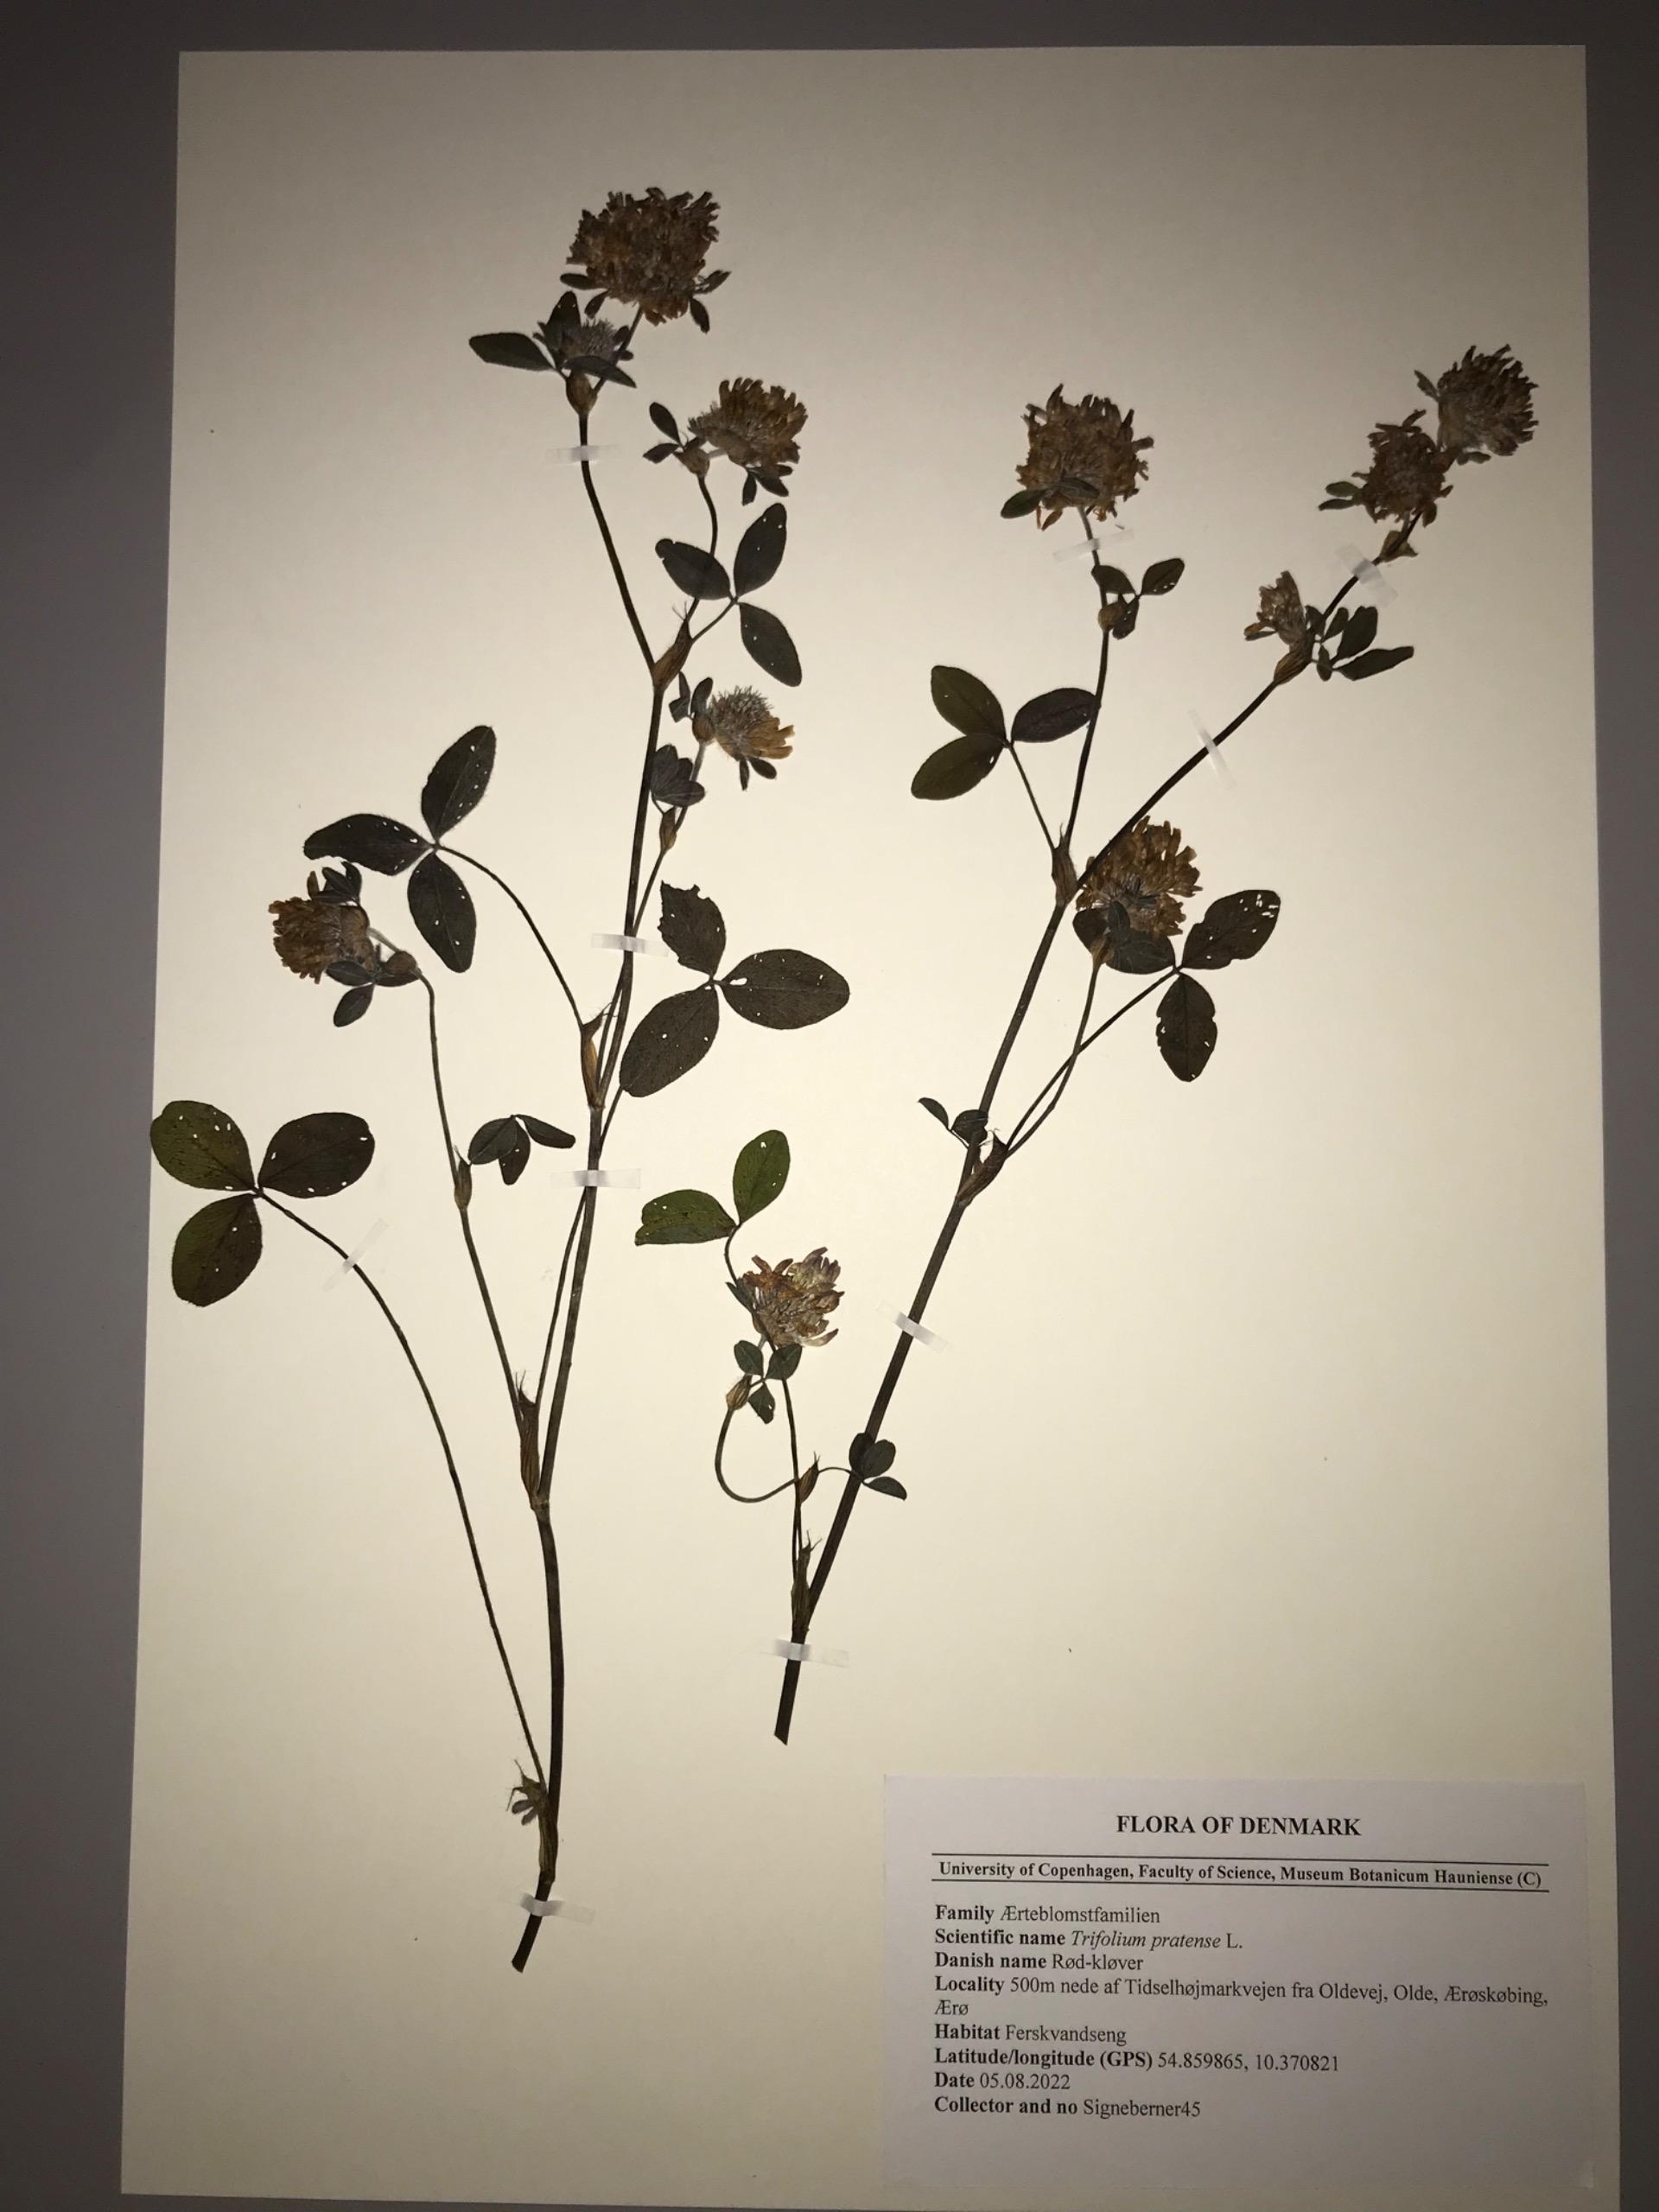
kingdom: Plantae
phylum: Tracheophyta
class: Magnoliopsida
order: Fabales
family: Fabaceae
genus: Trifolium
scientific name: Trifolium pratense
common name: Rød-kløver
